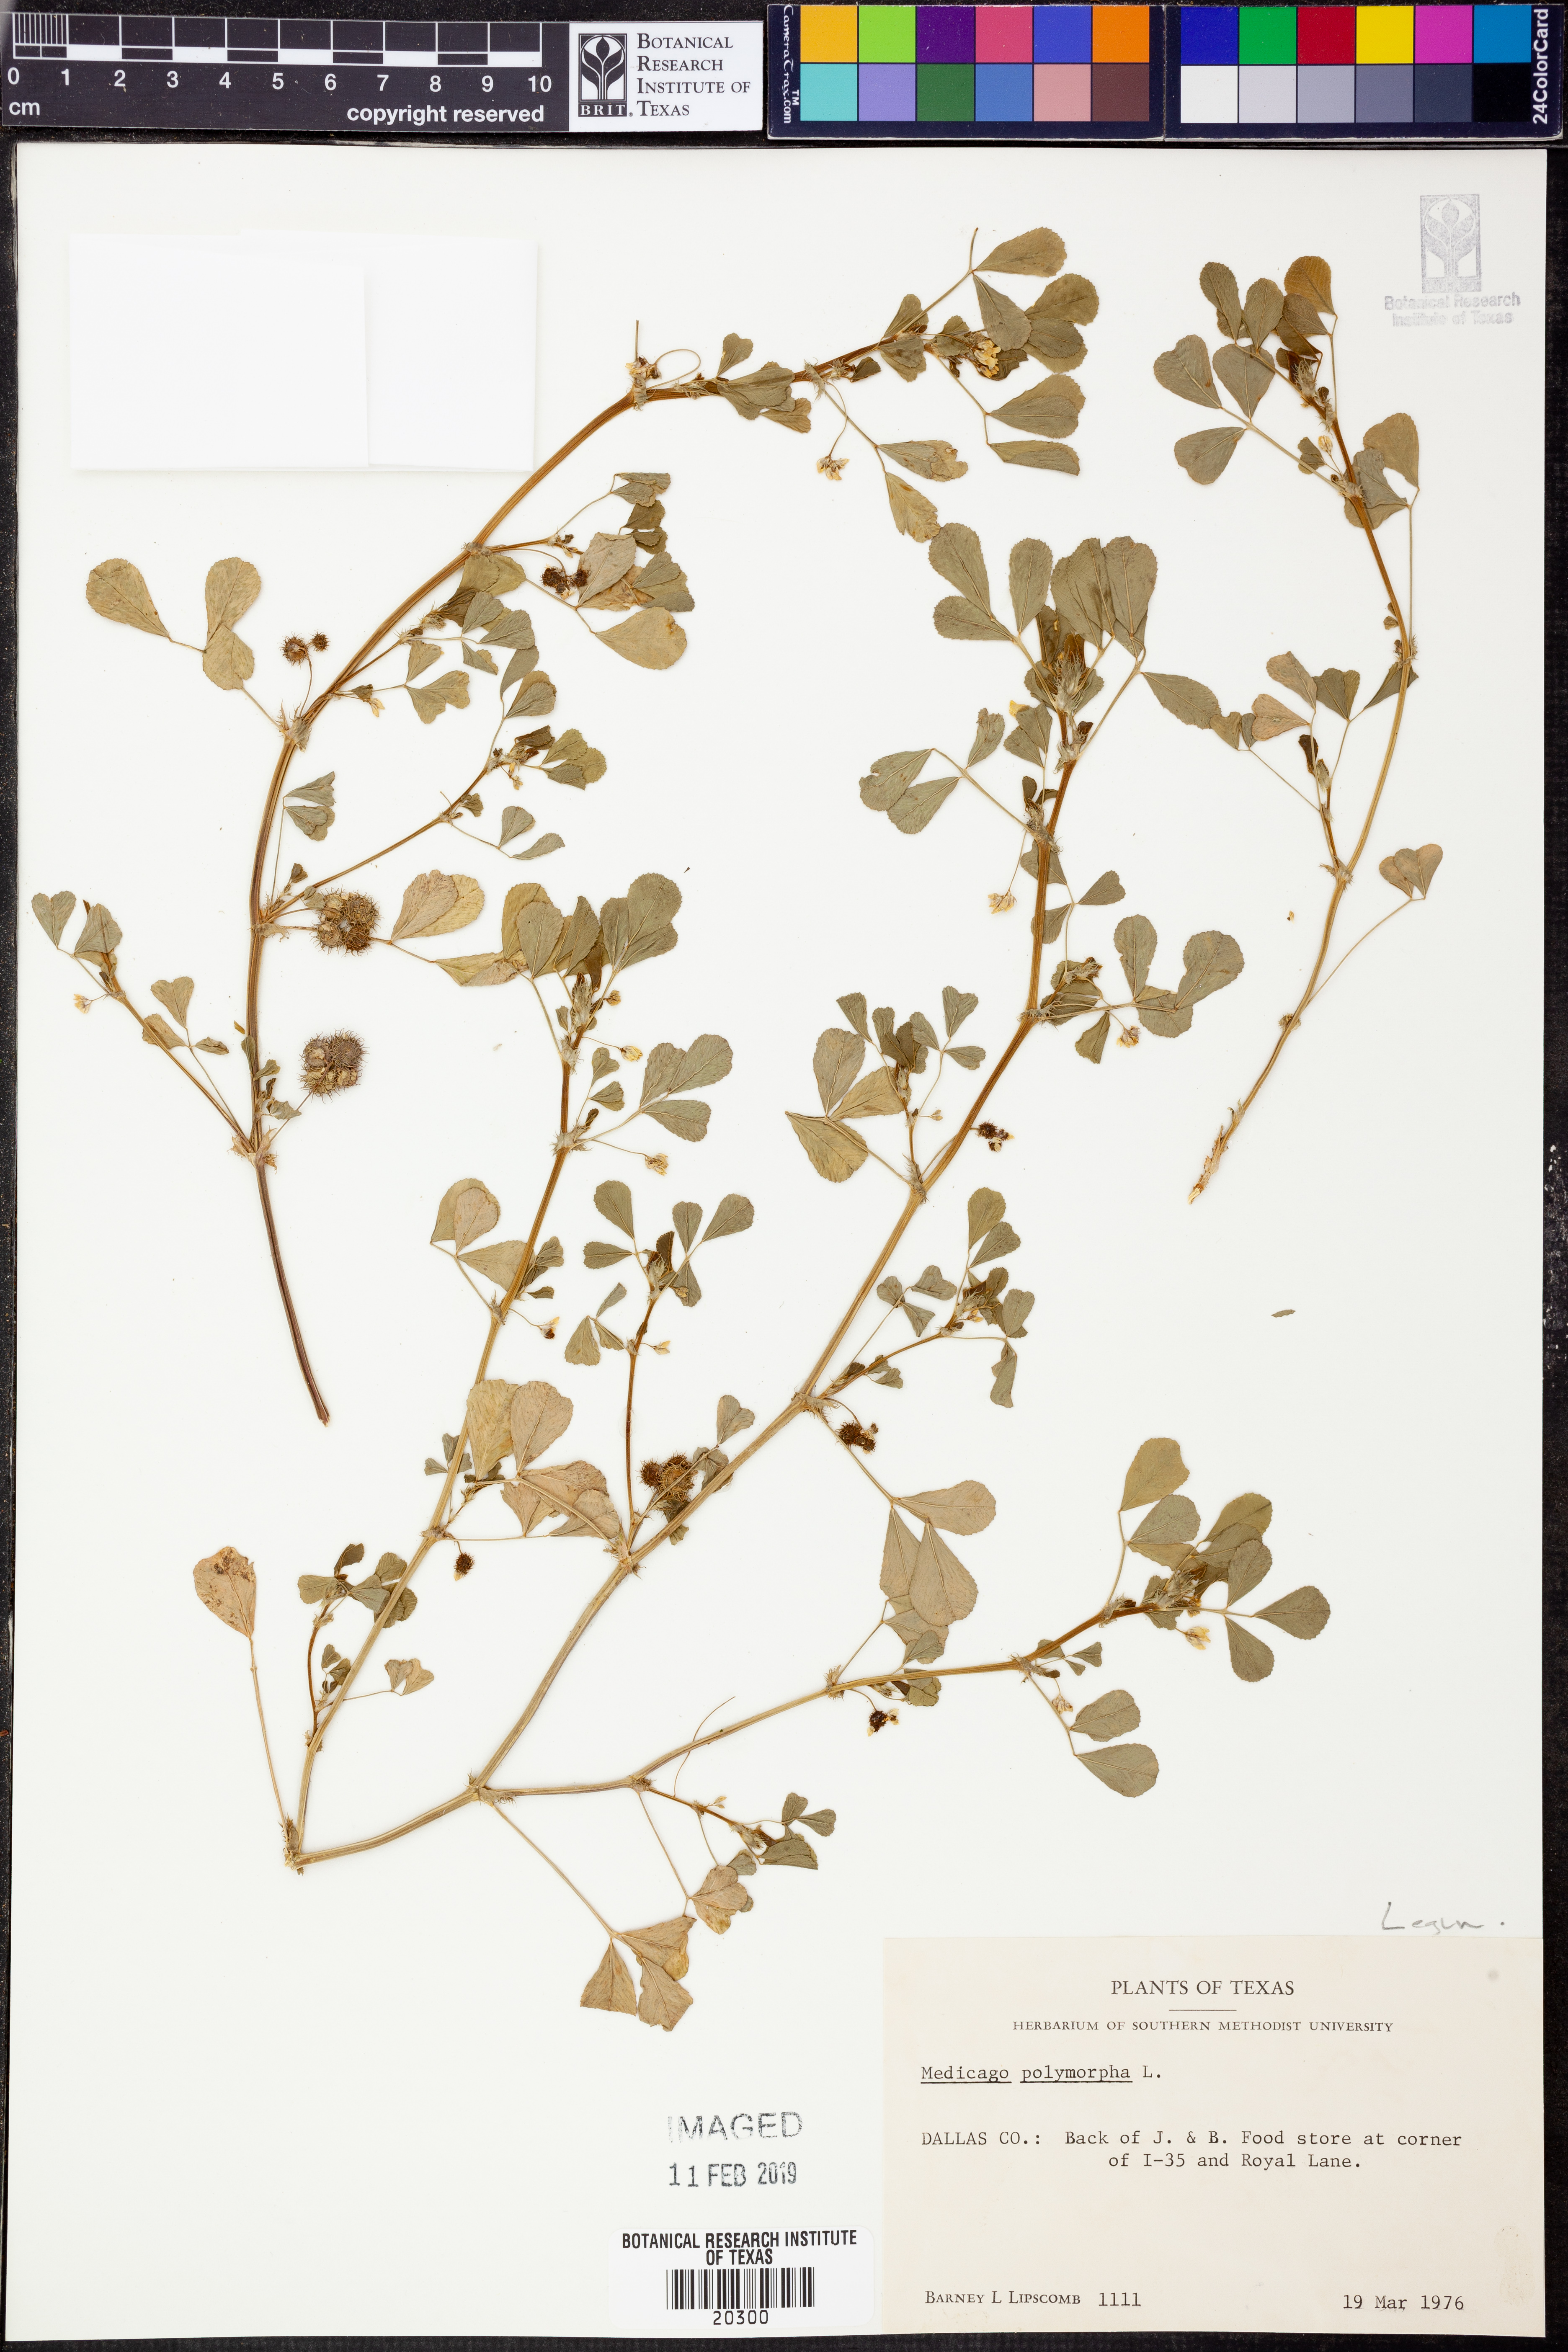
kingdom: Plantae
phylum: Tracheophyta
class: Magnoliopsida
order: Fabales
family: Fabaceae
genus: Medicago
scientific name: Medicago polymorpha
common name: Burclover
